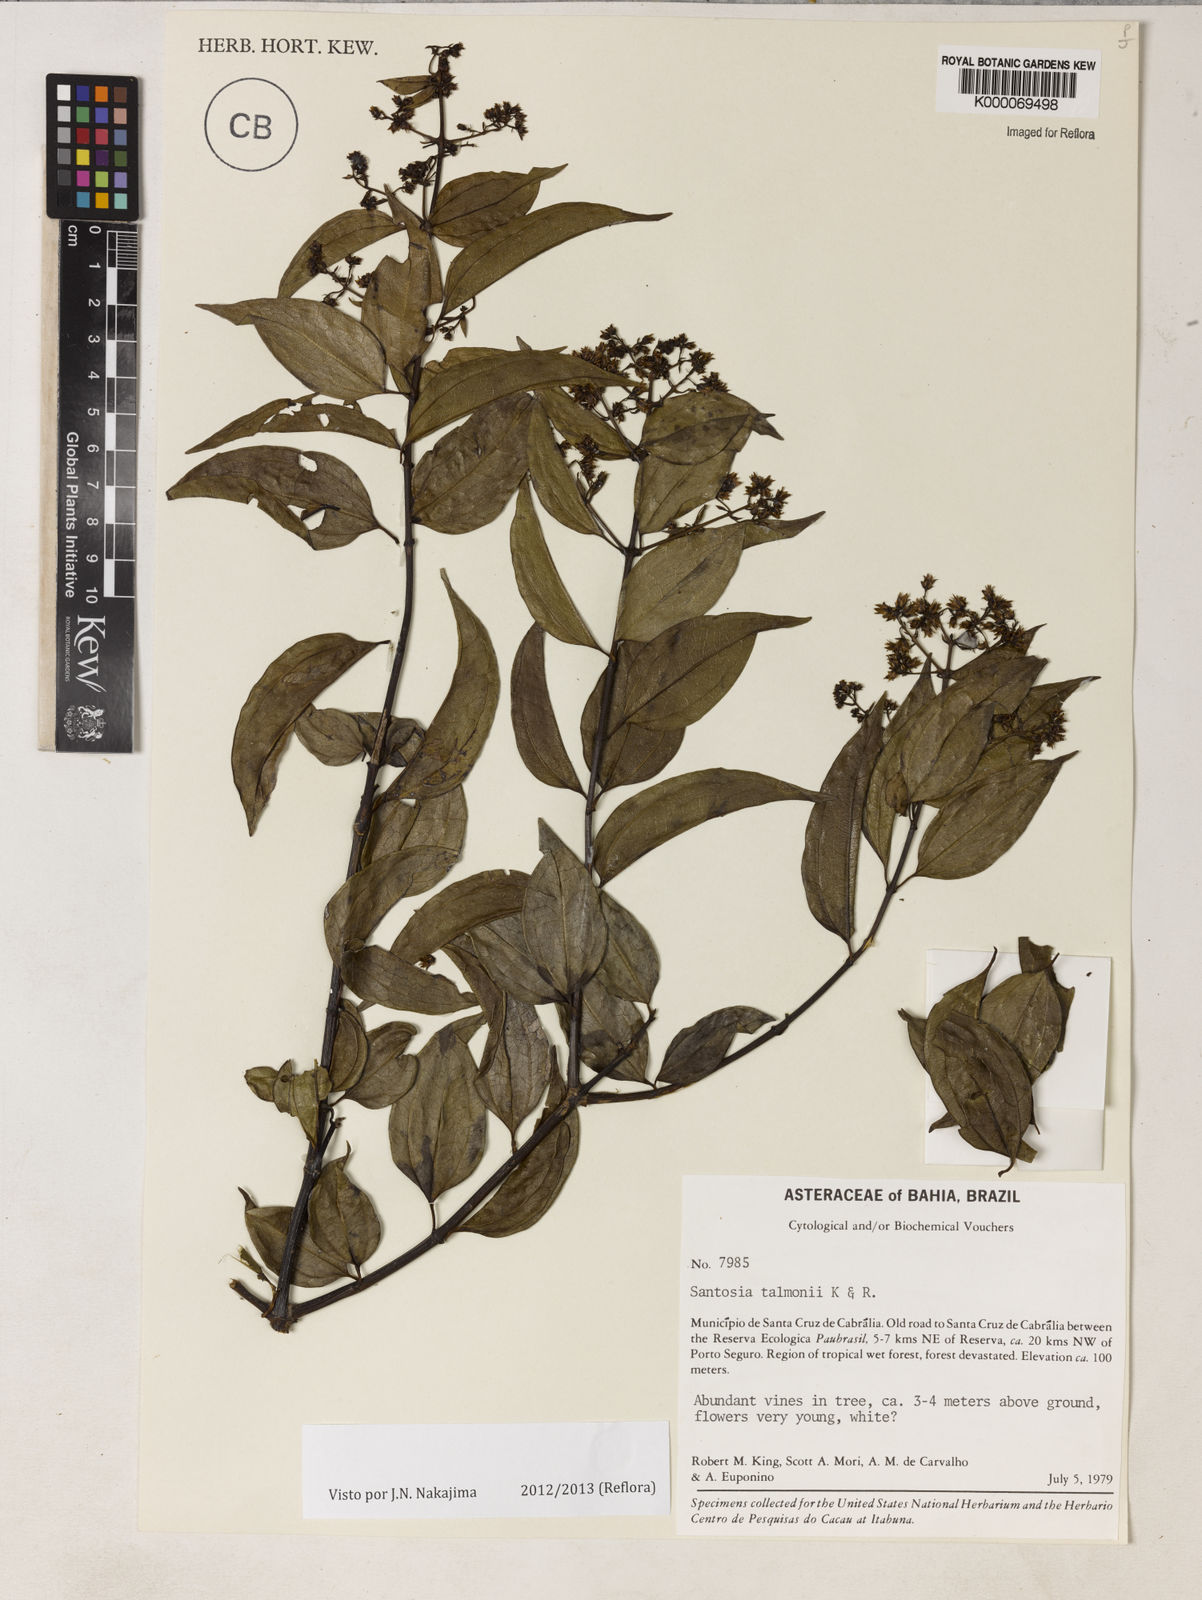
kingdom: Plantae
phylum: Tracheophyta
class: Magnoliopsida
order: Asterales
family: Asteraceae
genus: Santosia
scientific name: Santosia talmonii
